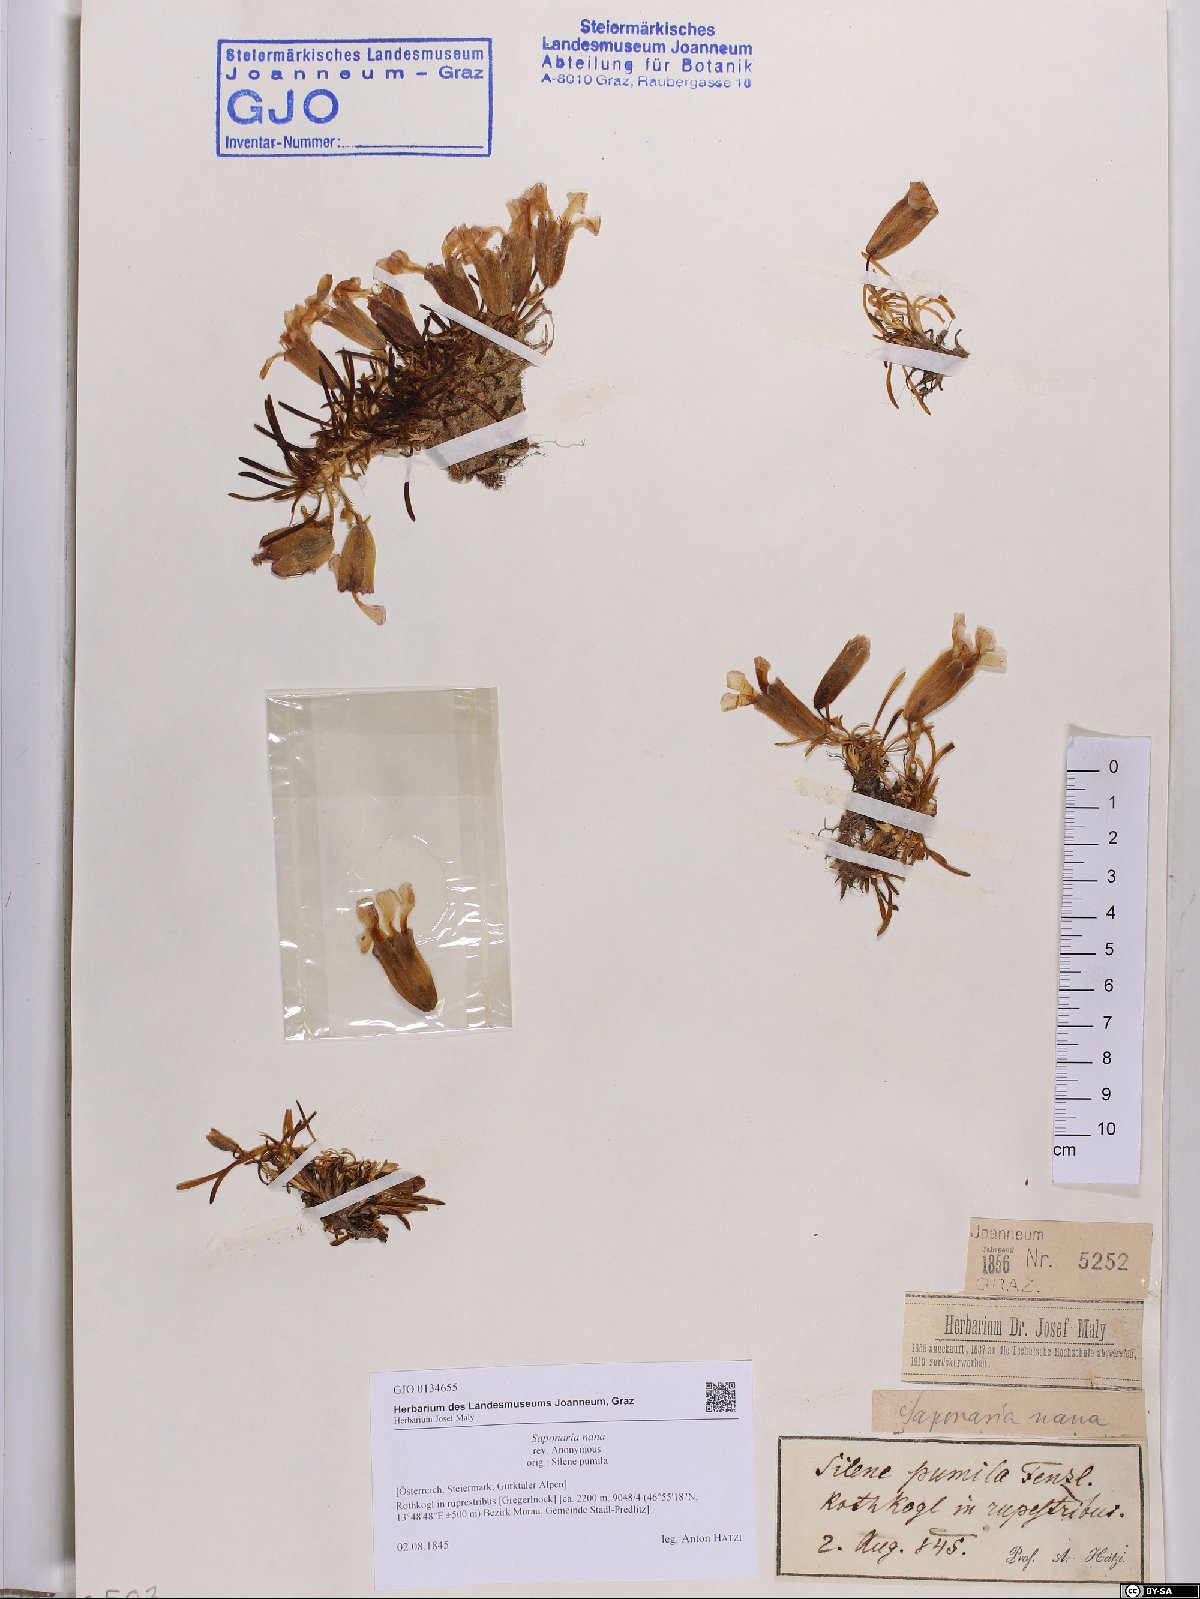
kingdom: Plantae
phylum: Tracheophyta
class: Magnoliopsida
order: Caryophyllales
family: Caryophyllaceae
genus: Saponaria
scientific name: Saponaria pumila
